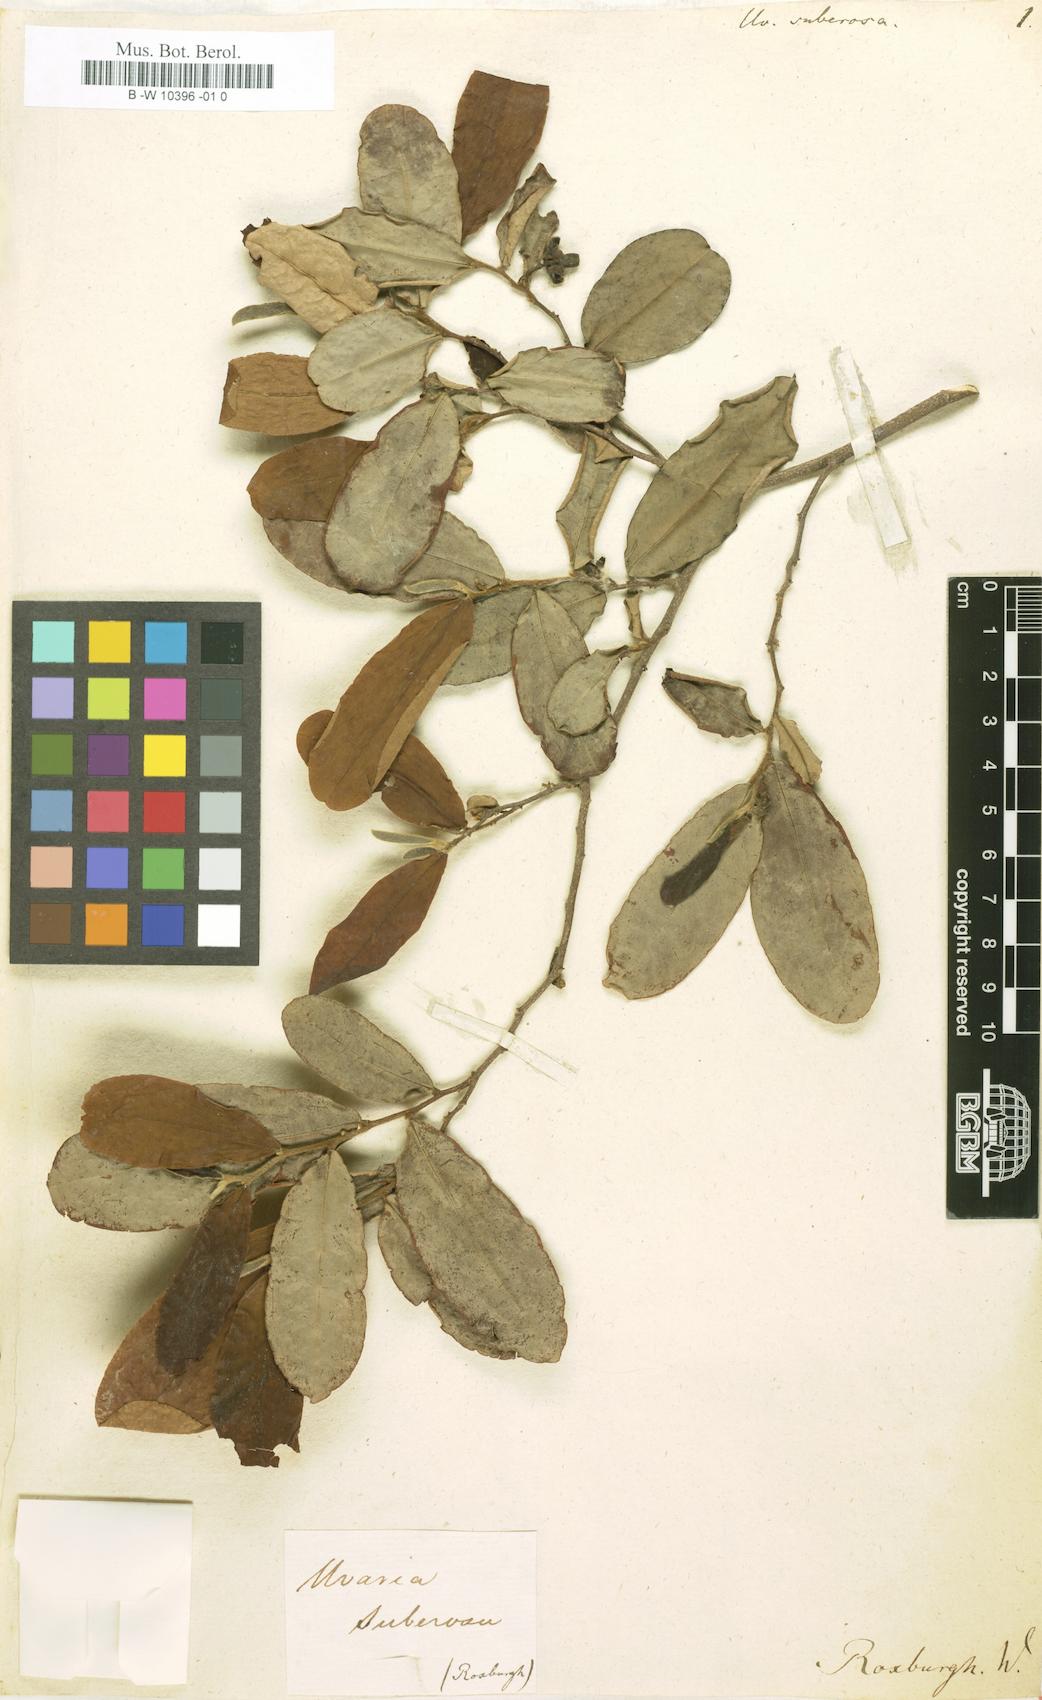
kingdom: Plantae
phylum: Tracheophyta
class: Magnoliopsida
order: Magnoliales
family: Annonaceae
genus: Polyalthia
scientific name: Polyalthia suberosa
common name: Polyalthia plant
